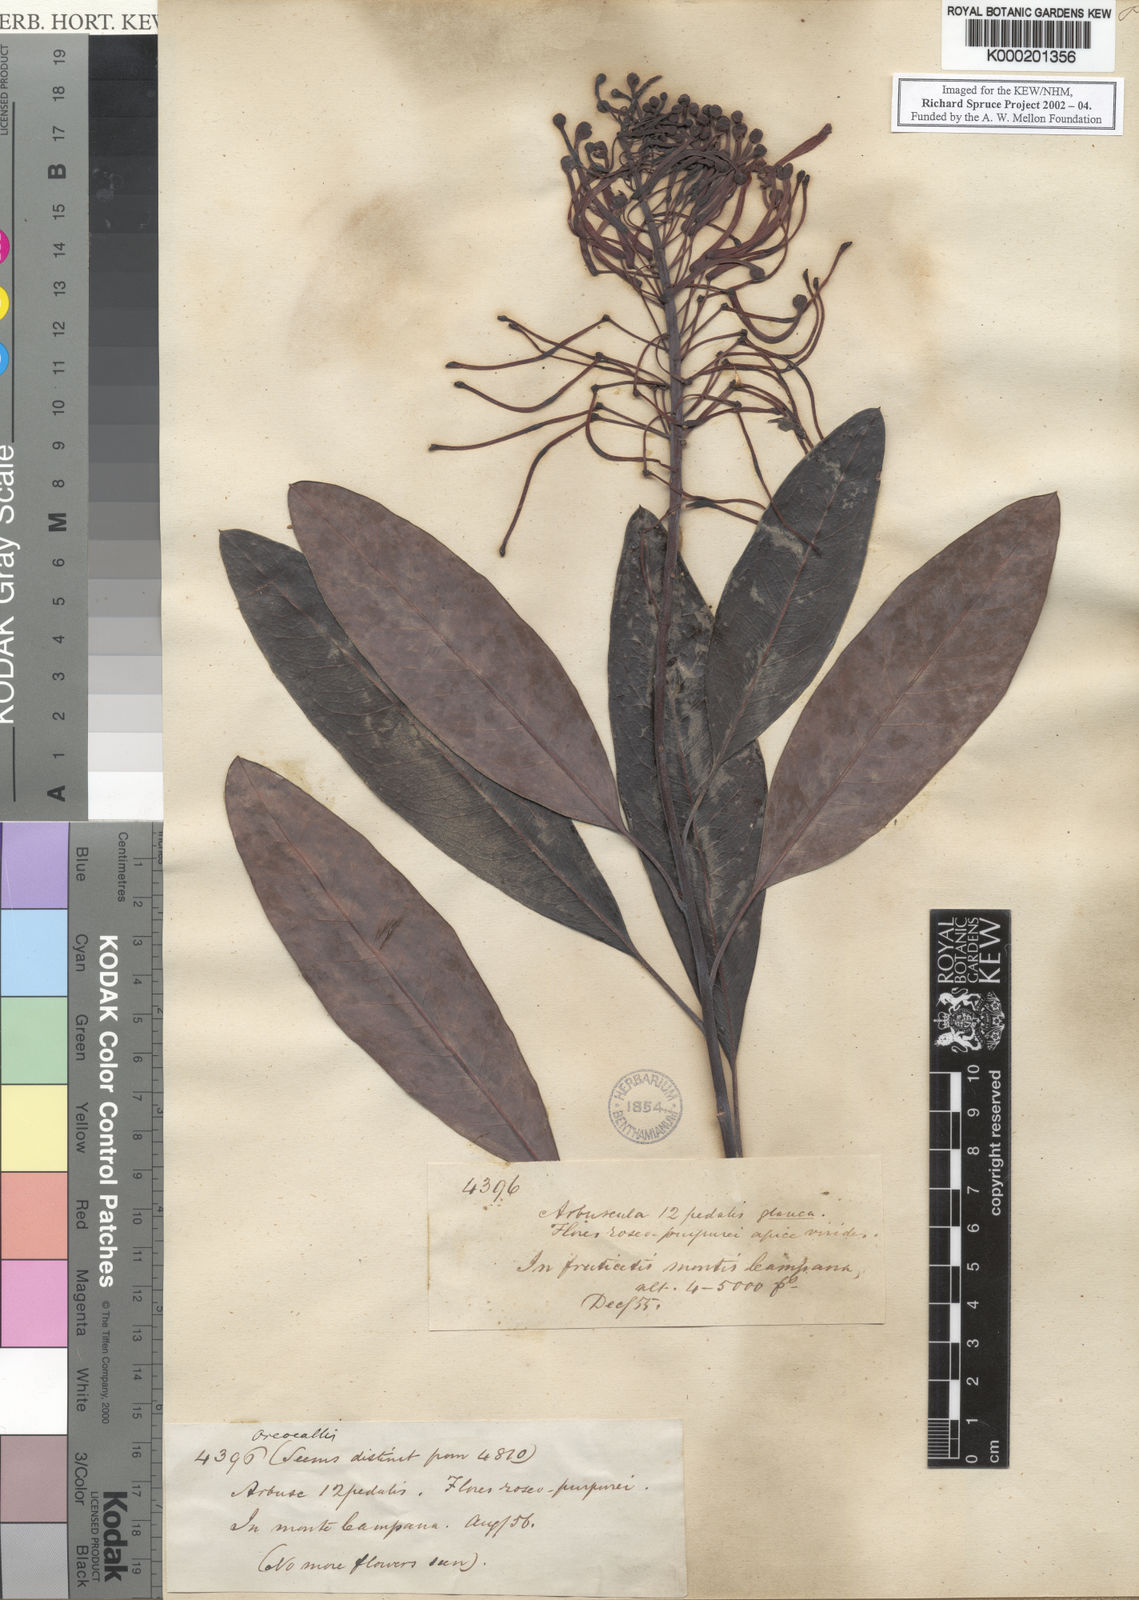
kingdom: Plantae
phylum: Tracheophyta
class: Magnoliopsida
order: Proteales
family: Proteaceae
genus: Oreocallis
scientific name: Oreocallis grandiflora
